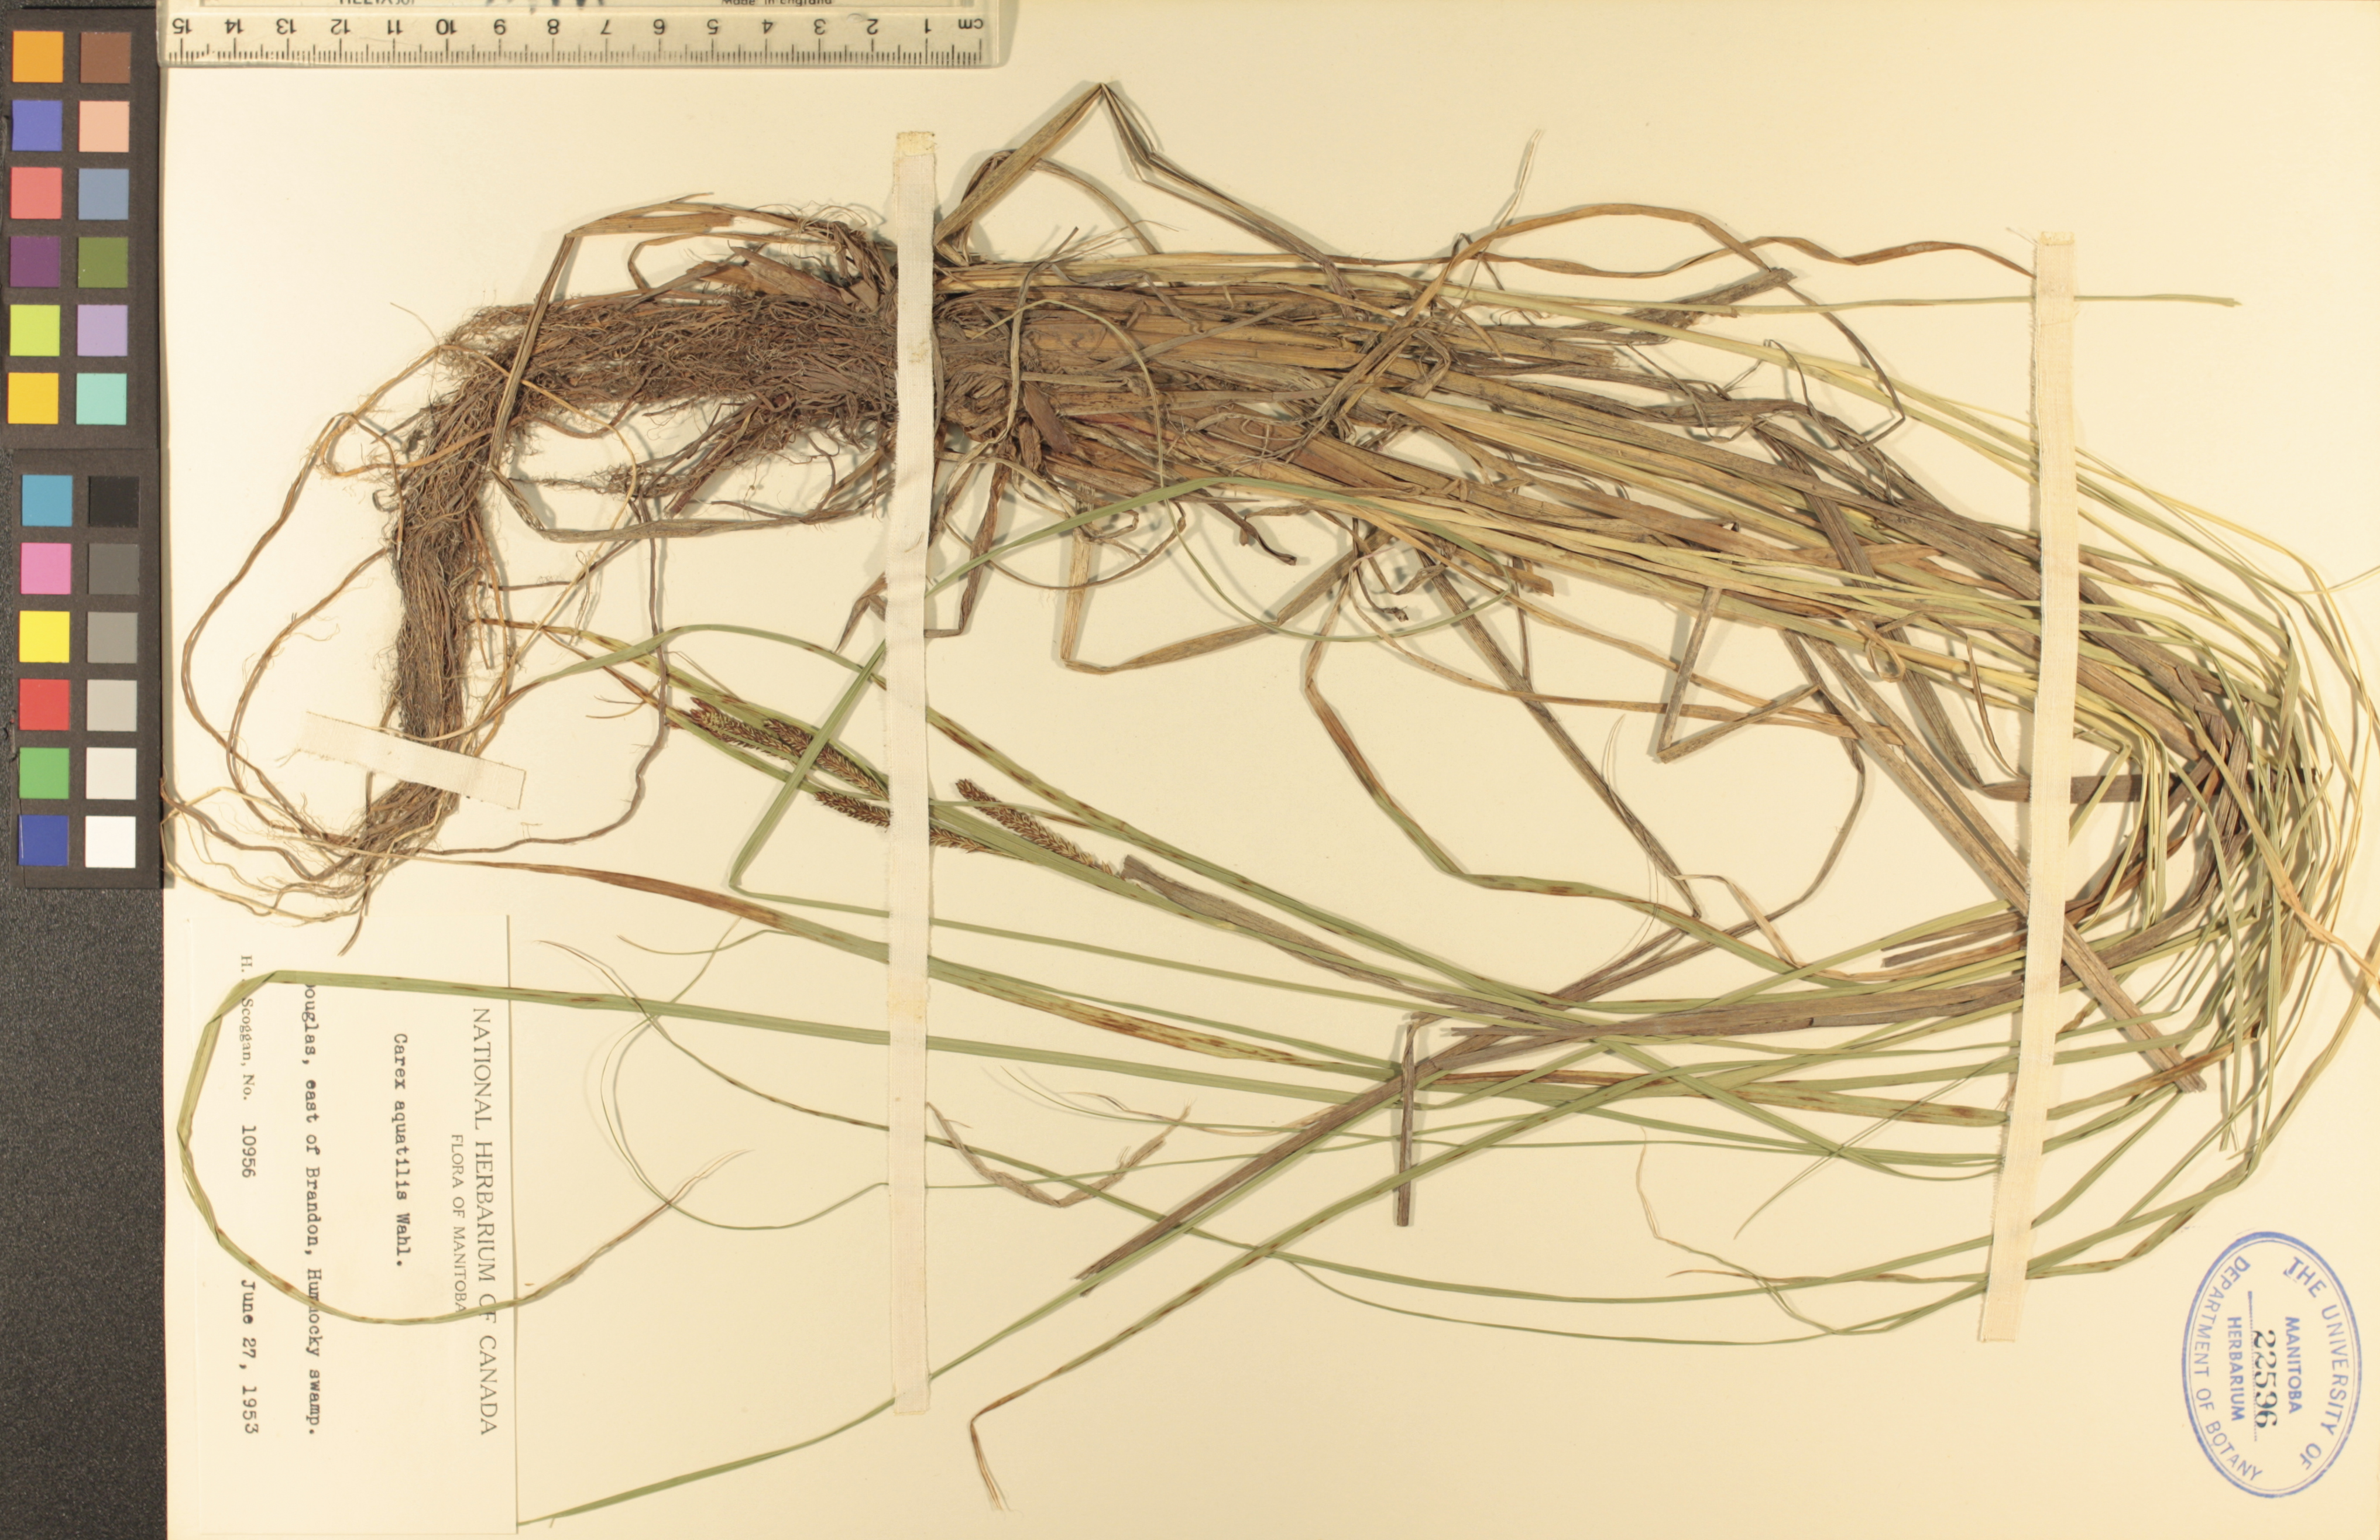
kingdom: Plantae
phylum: Tracheophyta
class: Liliopsida
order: Poales
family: Cyperaceae
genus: Carex
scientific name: Carex aquatilis
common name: Water sedge
